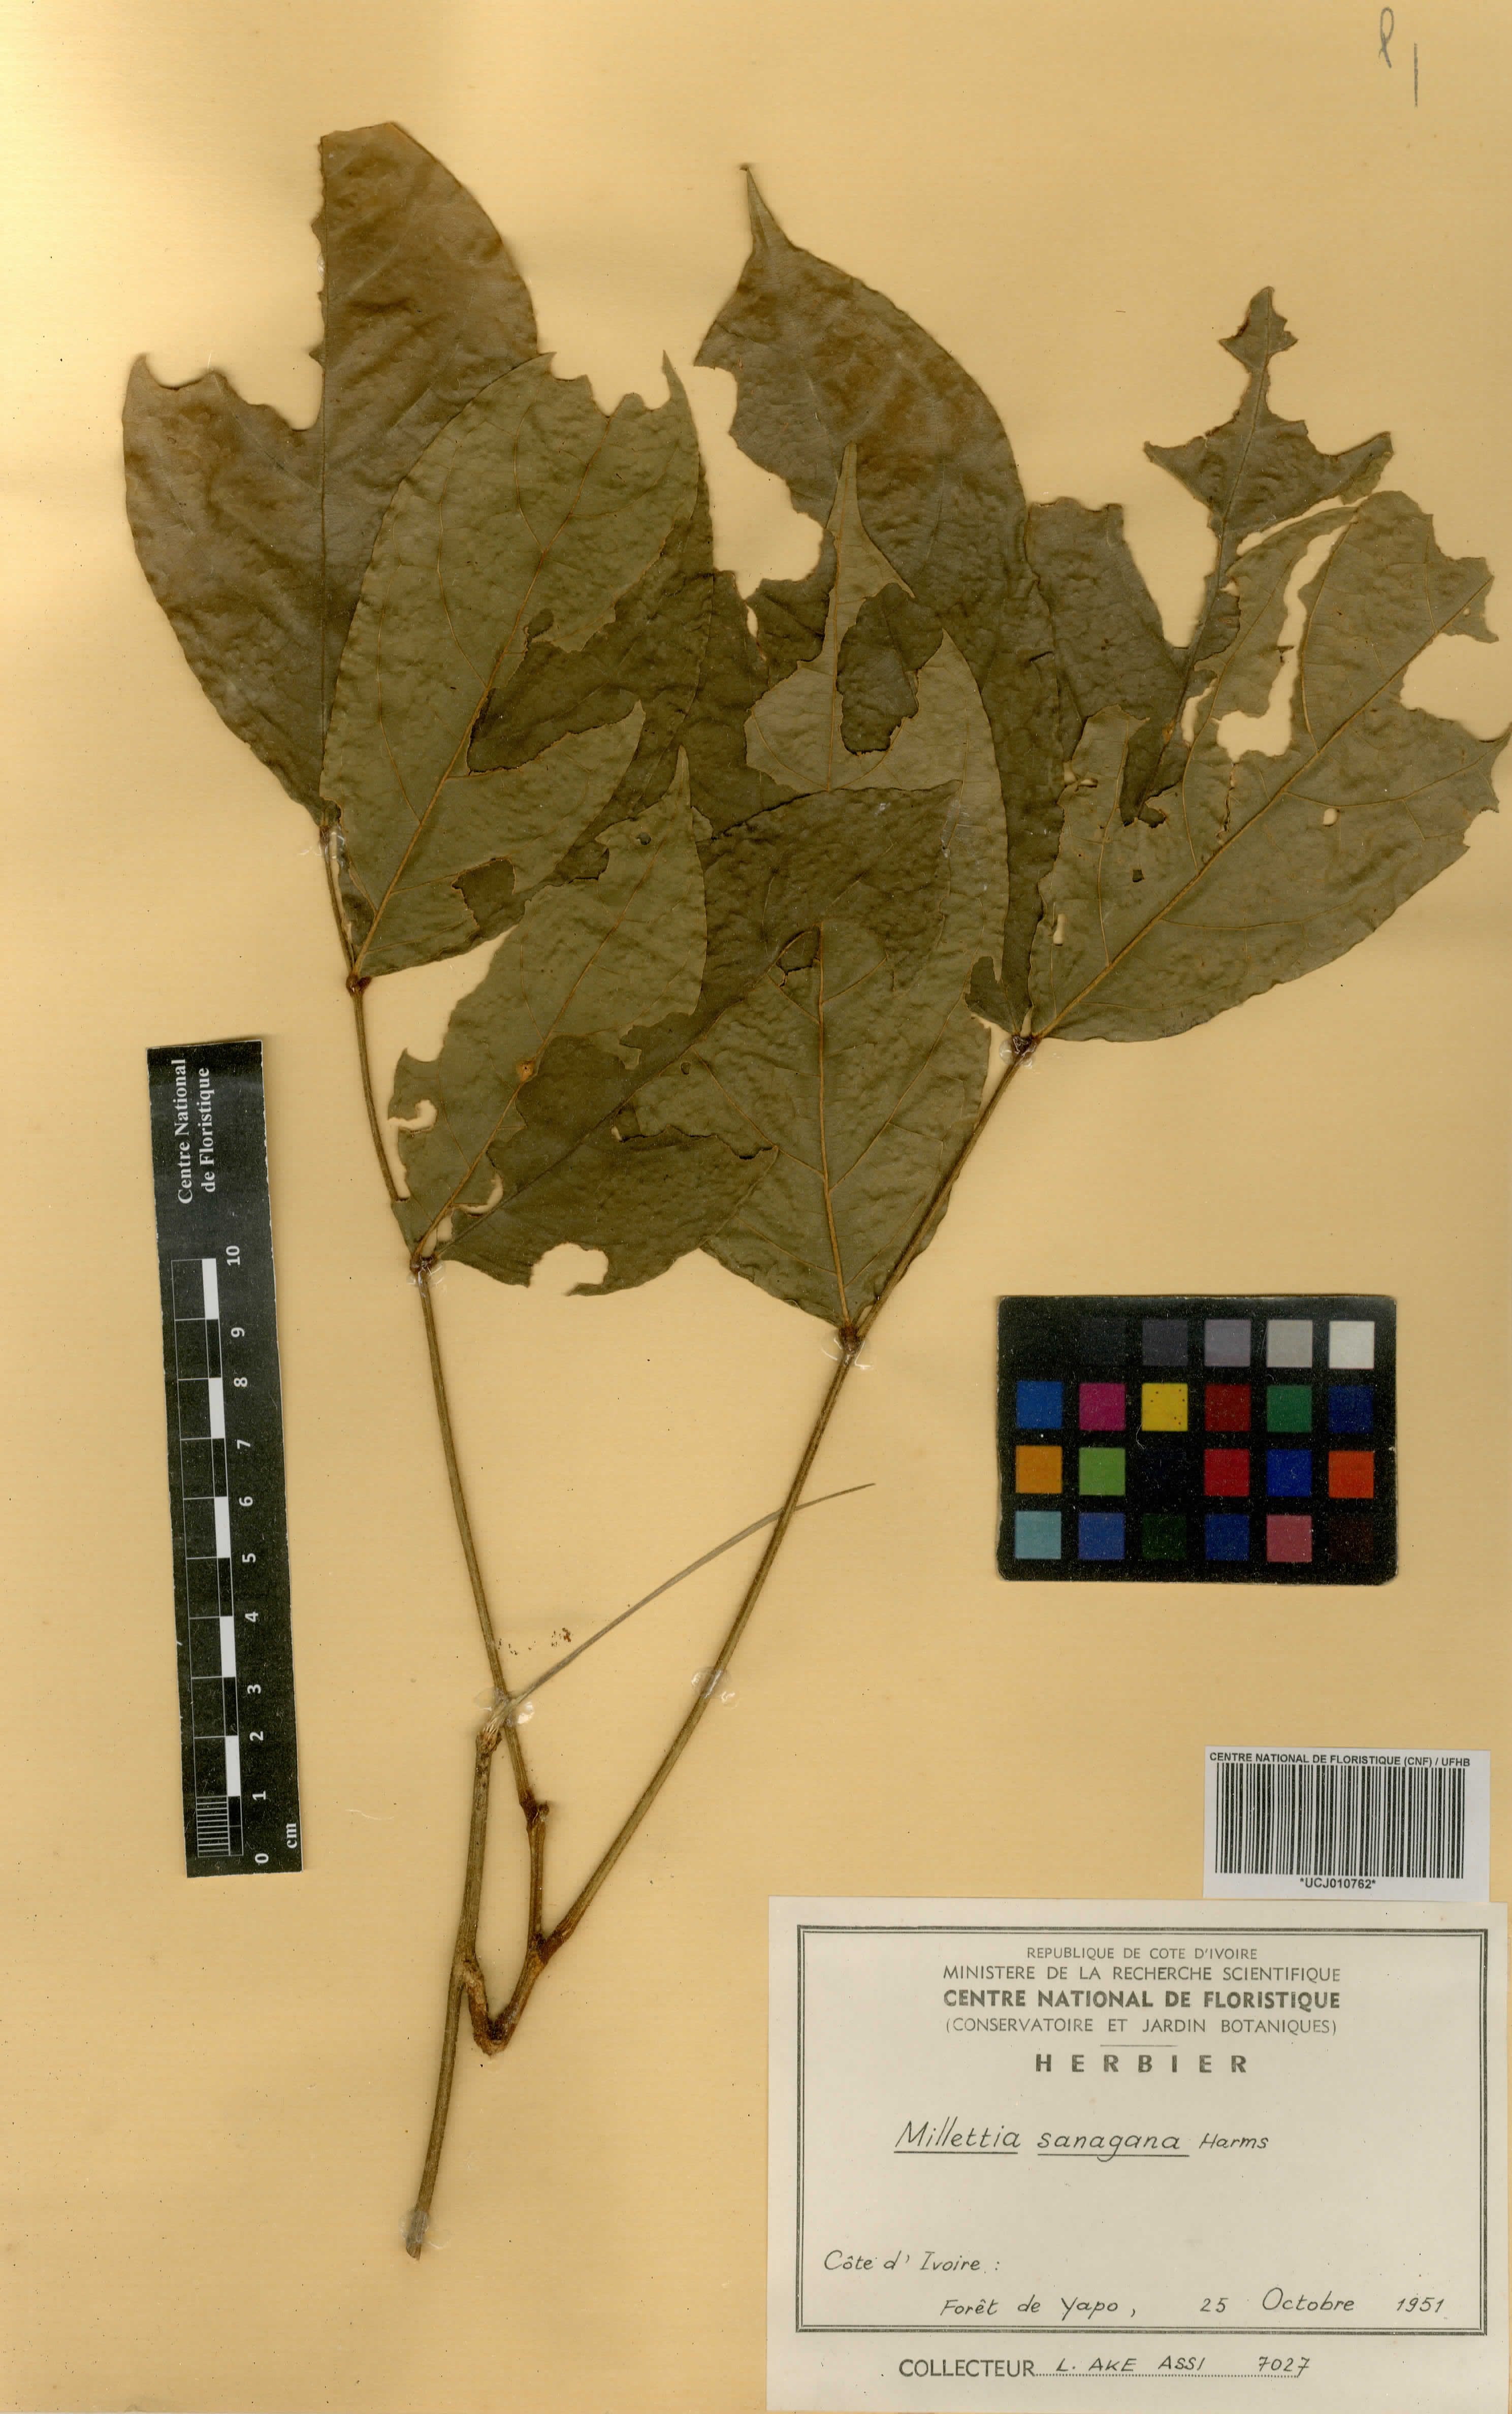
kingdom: Plantae
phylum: Tracheophyta
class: Magnoliopsida
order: Fabales
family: Fabaceae
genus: Millettia
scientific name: Millettia sanagana
